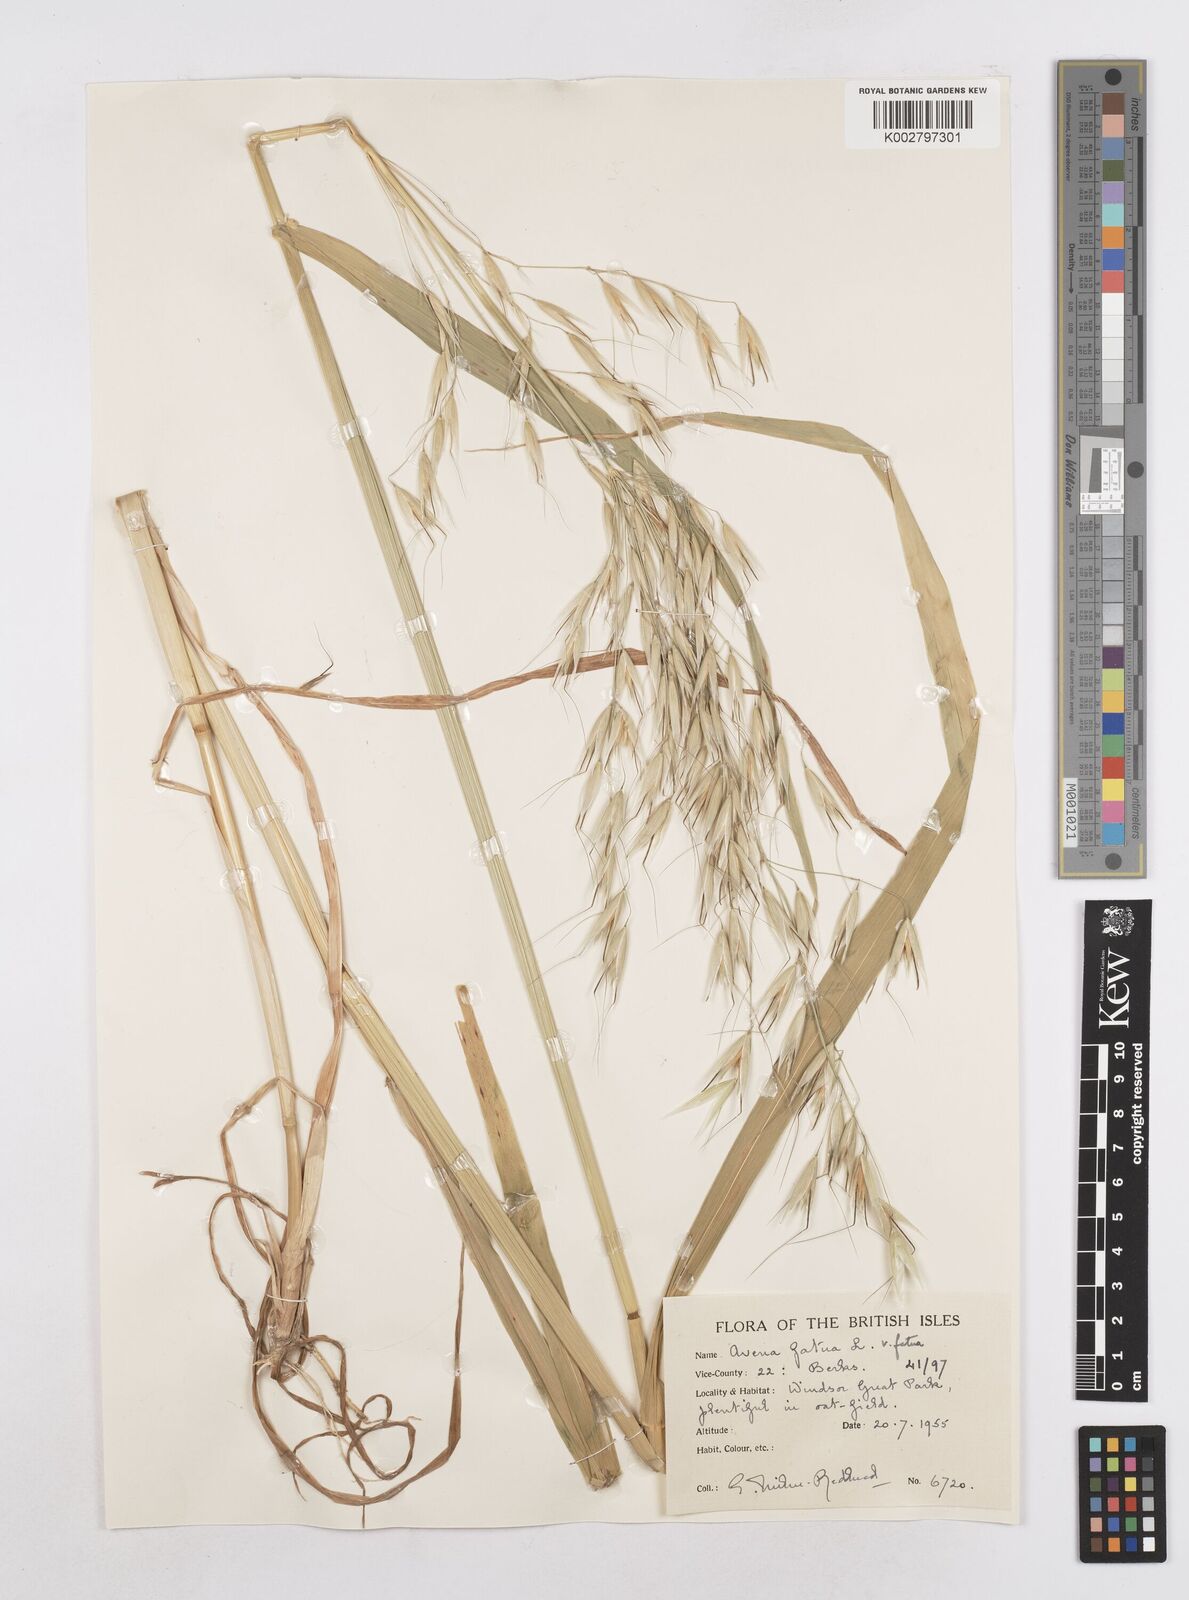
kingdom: Plantae
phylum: Tracheophyta
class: Liliopsida
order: Poales
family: Poaceae
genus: Avena
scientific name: Avena fatua
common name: Wild oat
